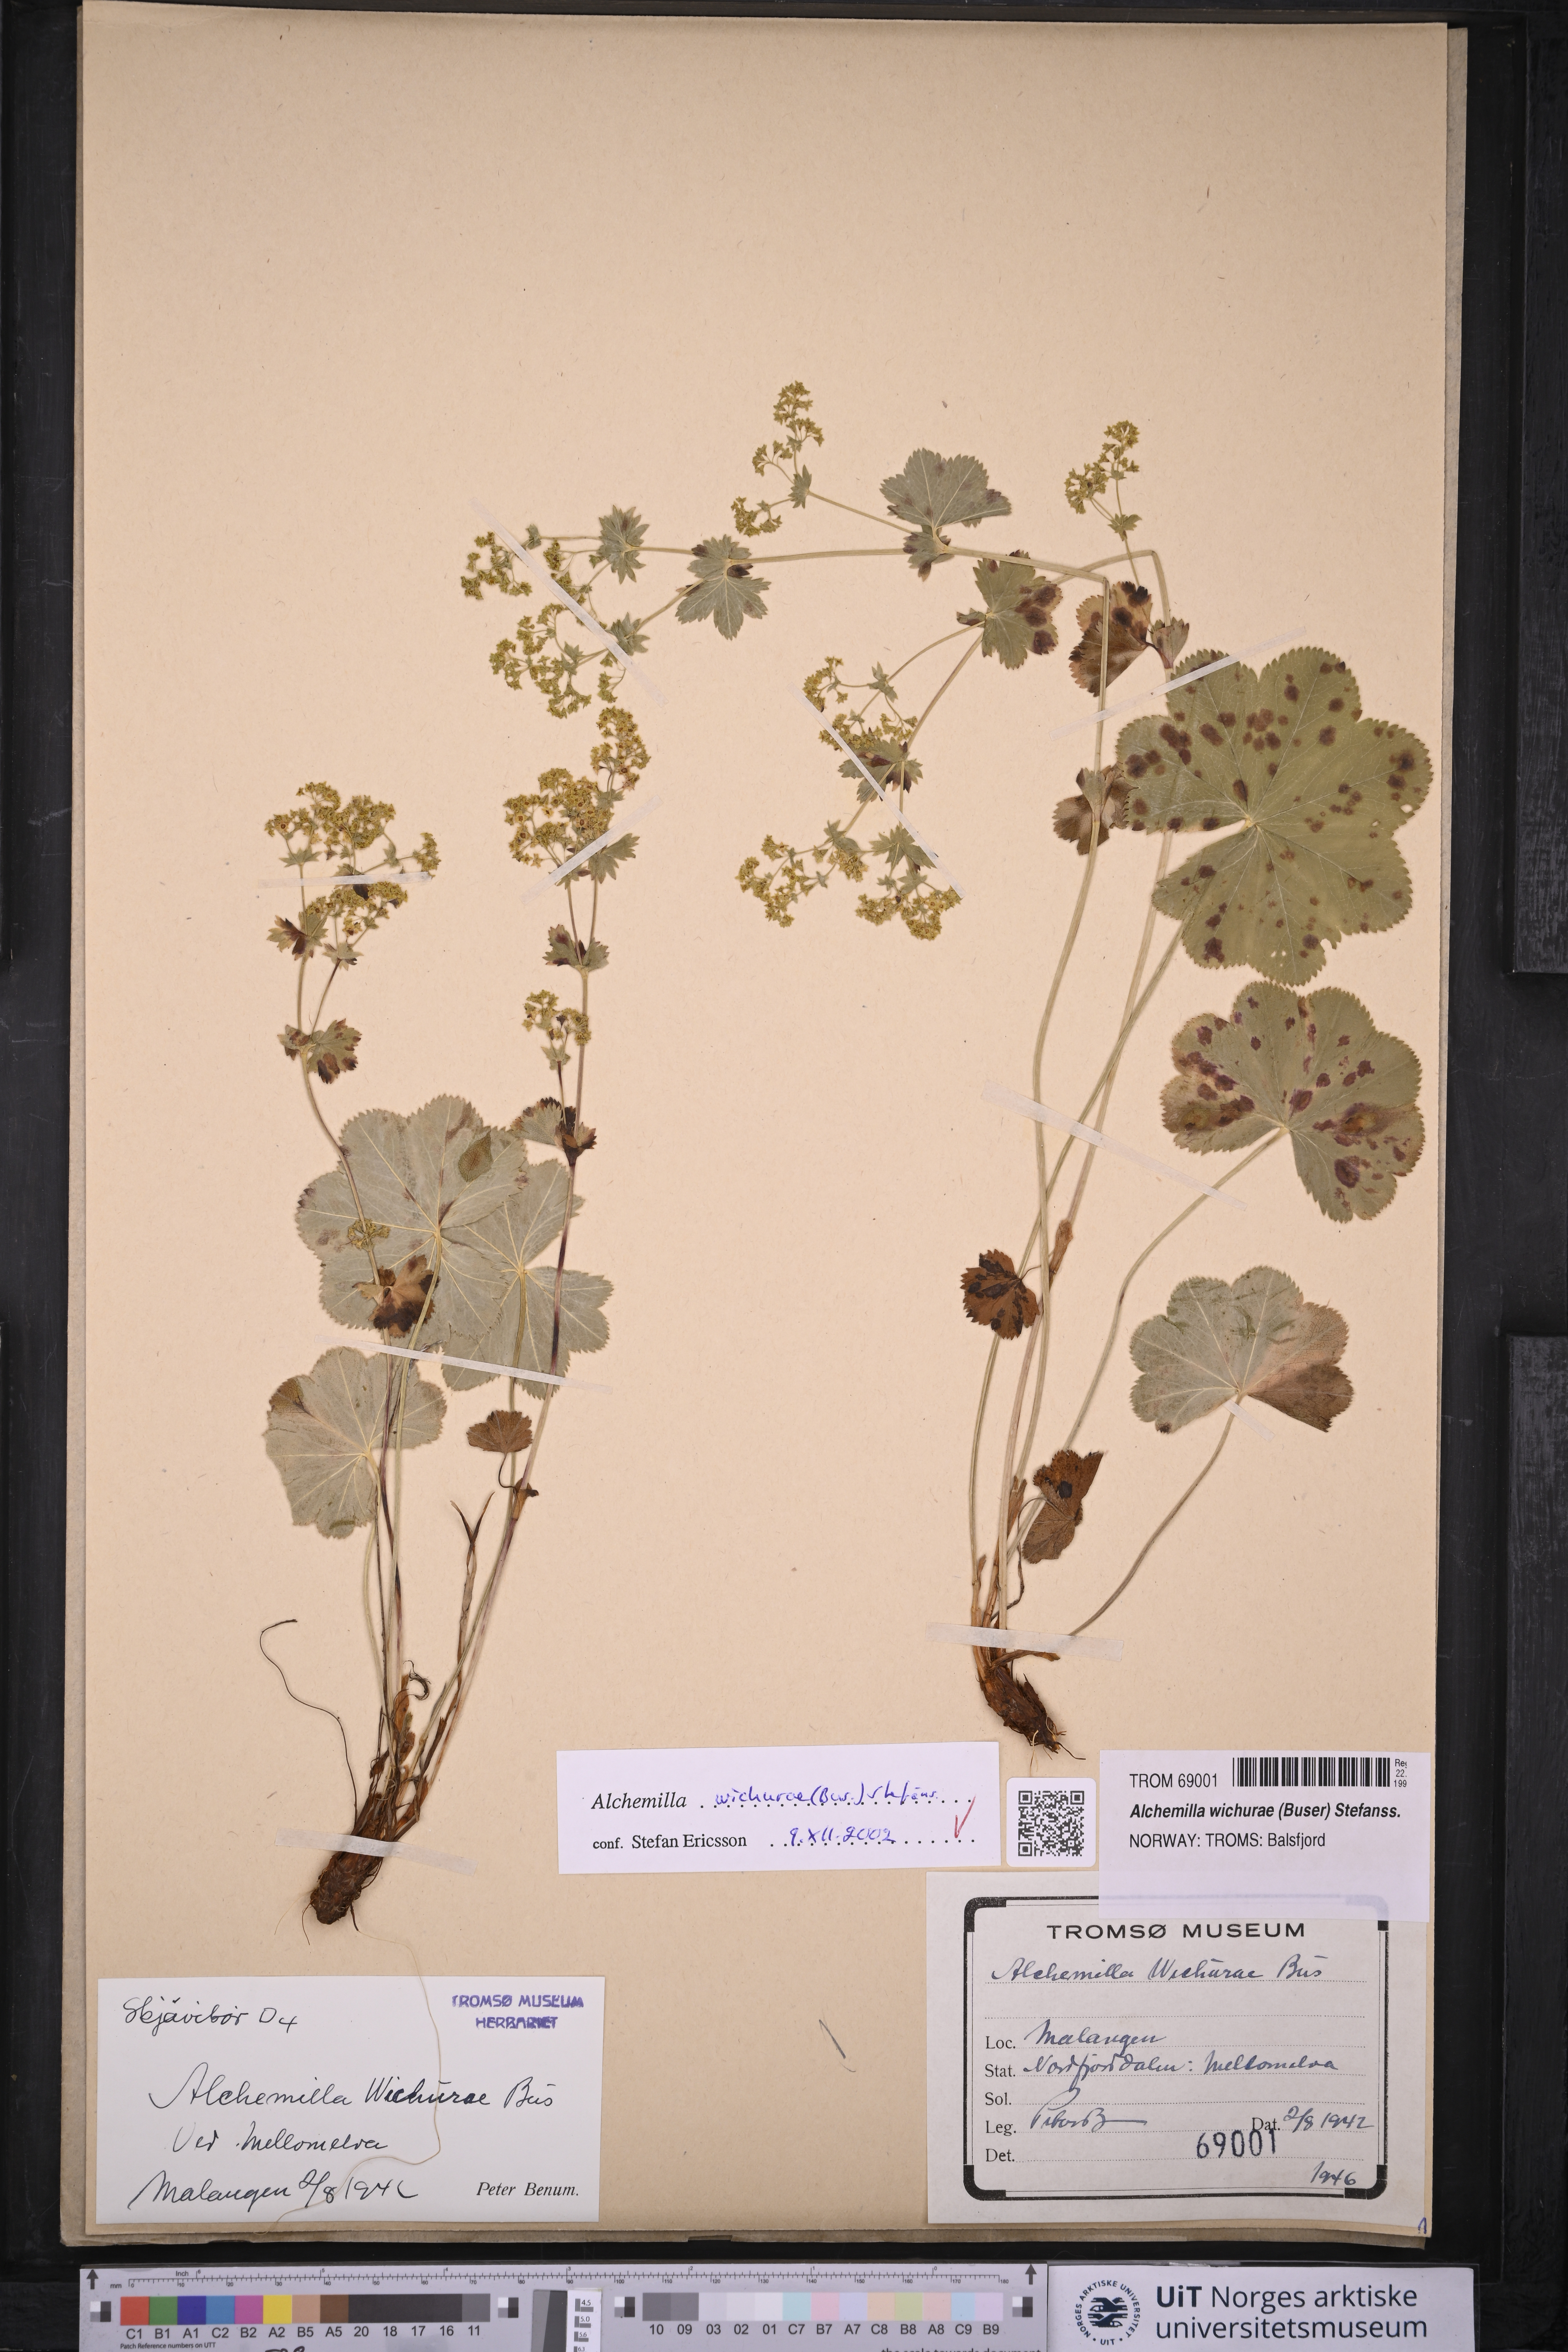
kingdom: Plantae
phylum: Tracheophyta
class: Magnoliopsida
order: Rosales
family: Rosaceae
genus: Alchemilla
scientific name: Alchemilla wichurae
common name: Rock lady's mantle
